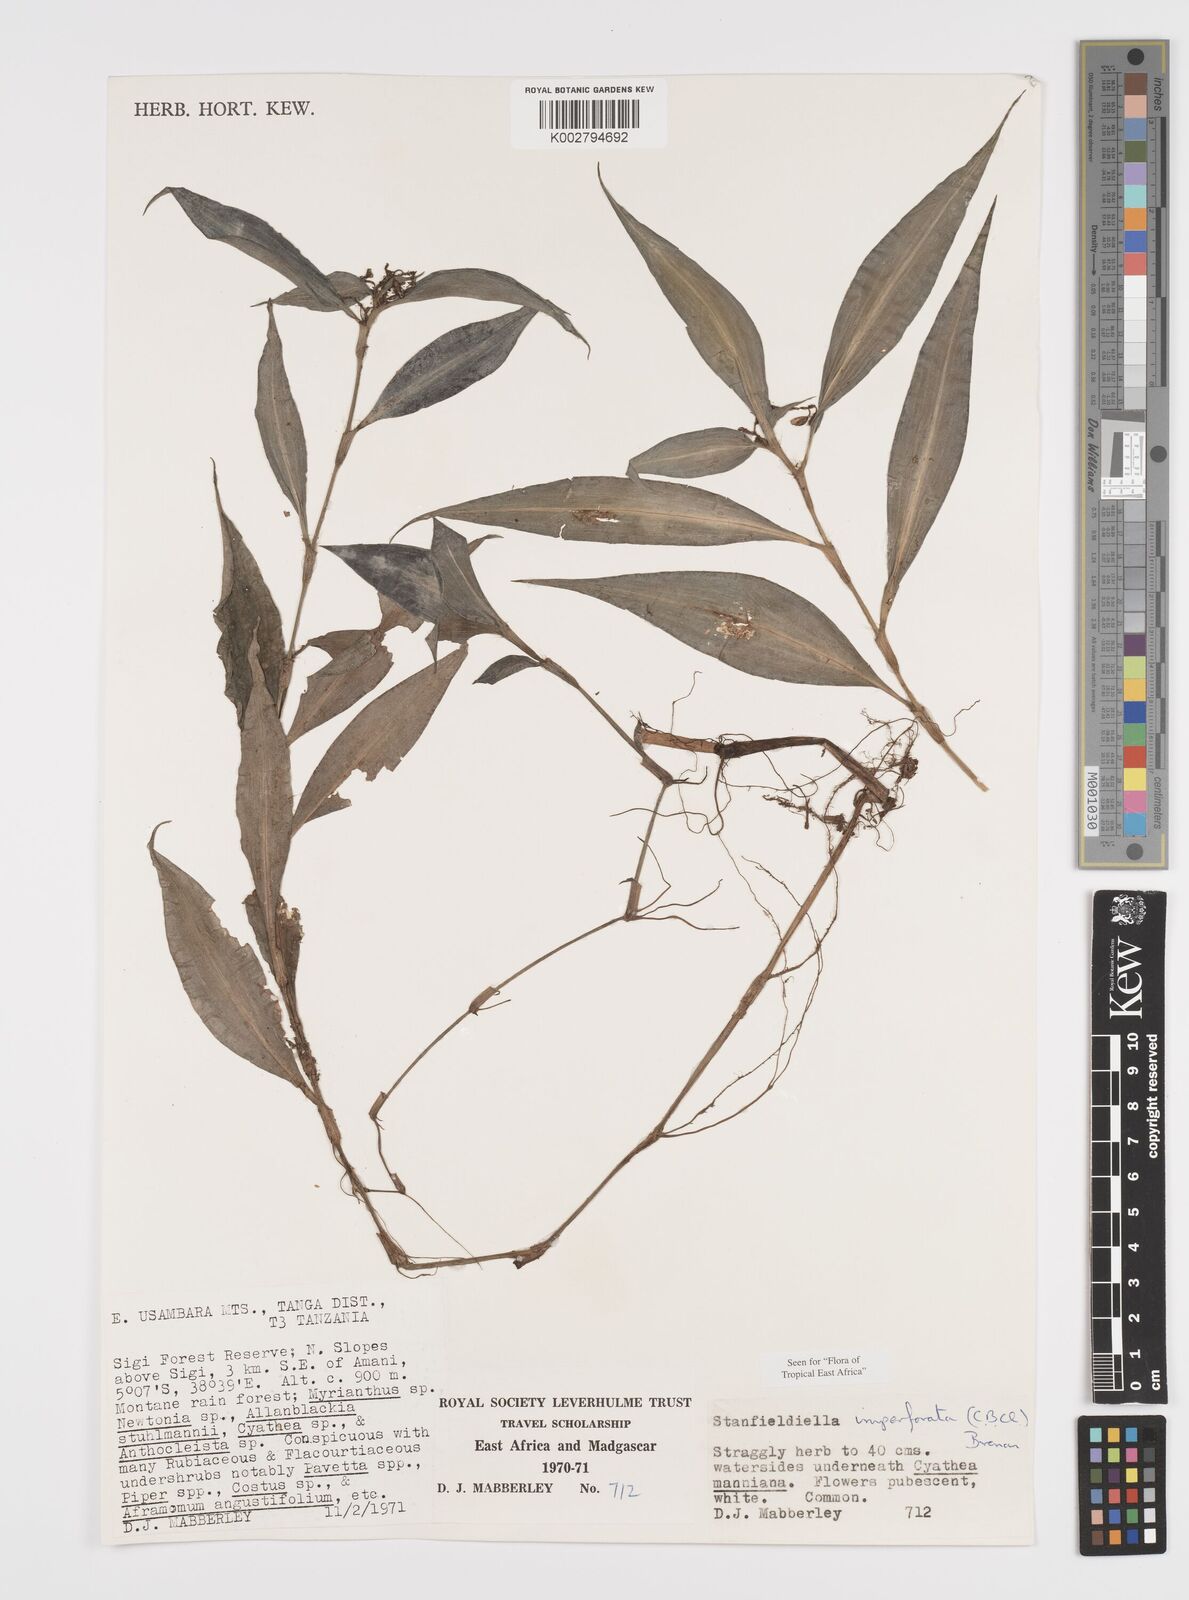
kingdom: Plantae
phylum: Tracheophyta
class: Liliopsida
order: Commelinales
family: Commelinaceae
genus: Stanfieldiella
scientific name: Stanfieldiella imperforata
